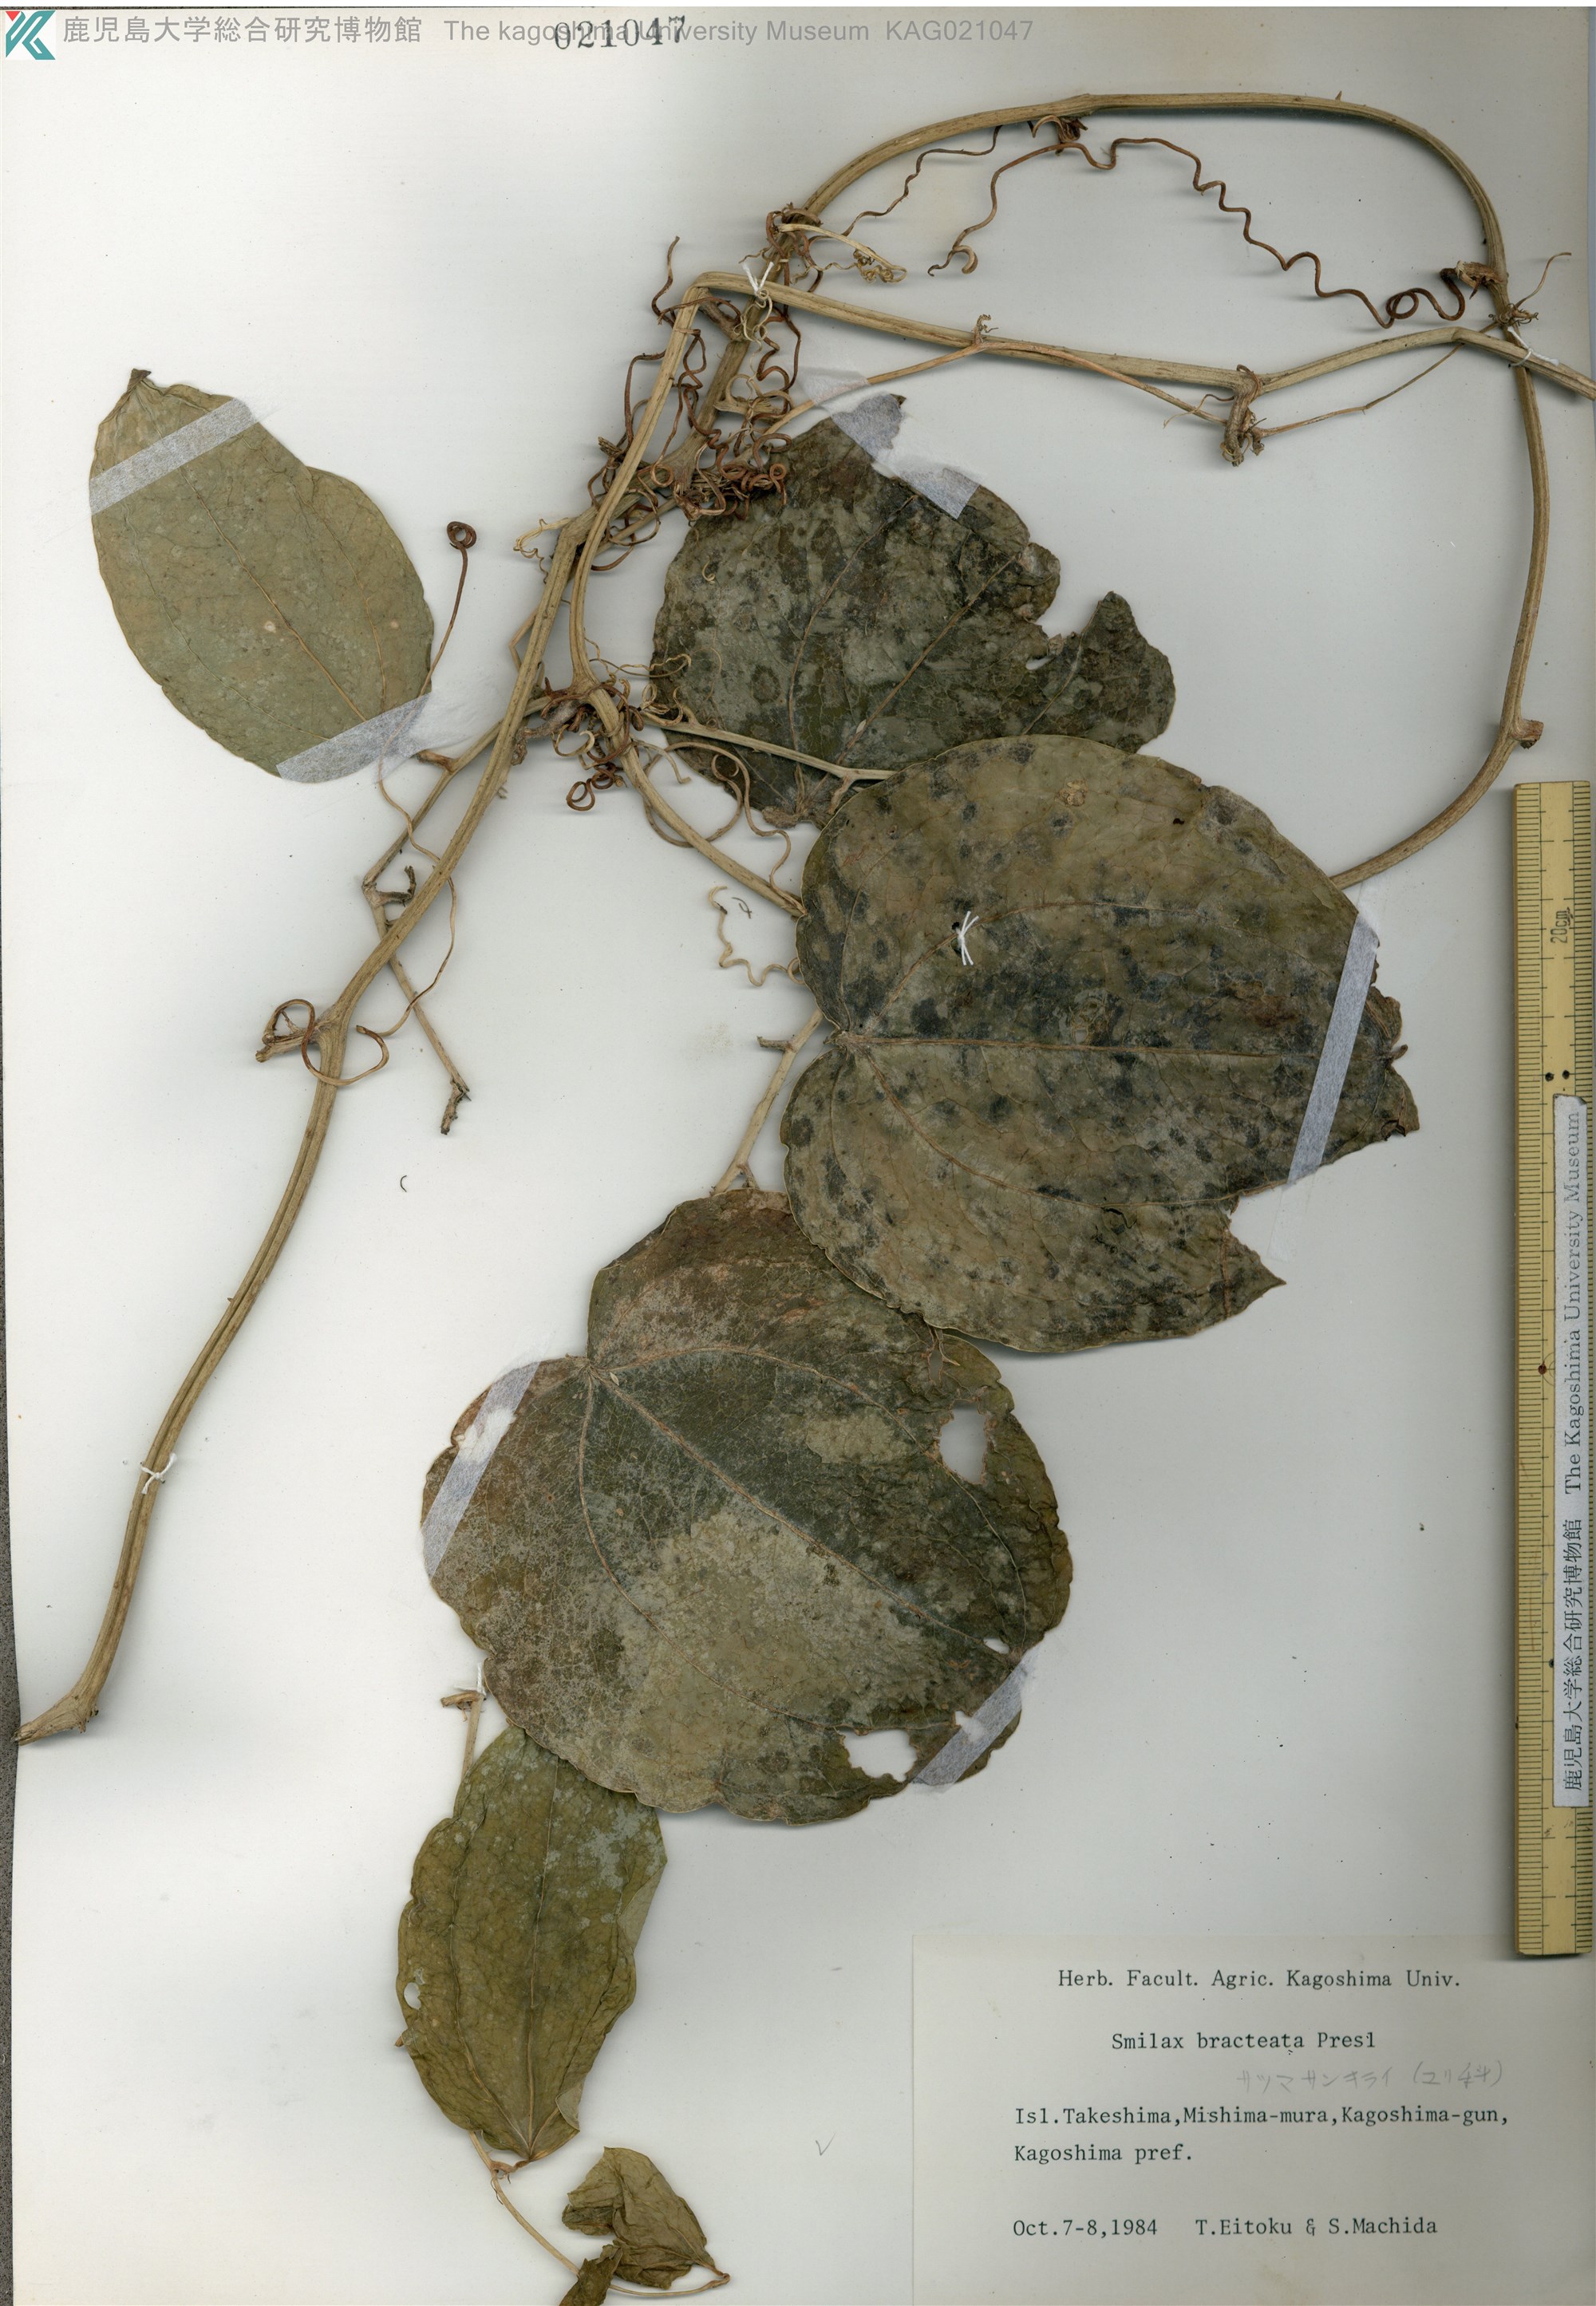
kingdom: Plantae
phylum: Tracheophyta
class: Liliopsida
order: Liliales
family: Smilacaceae
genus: Smilax
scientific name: Smilax bracteata
